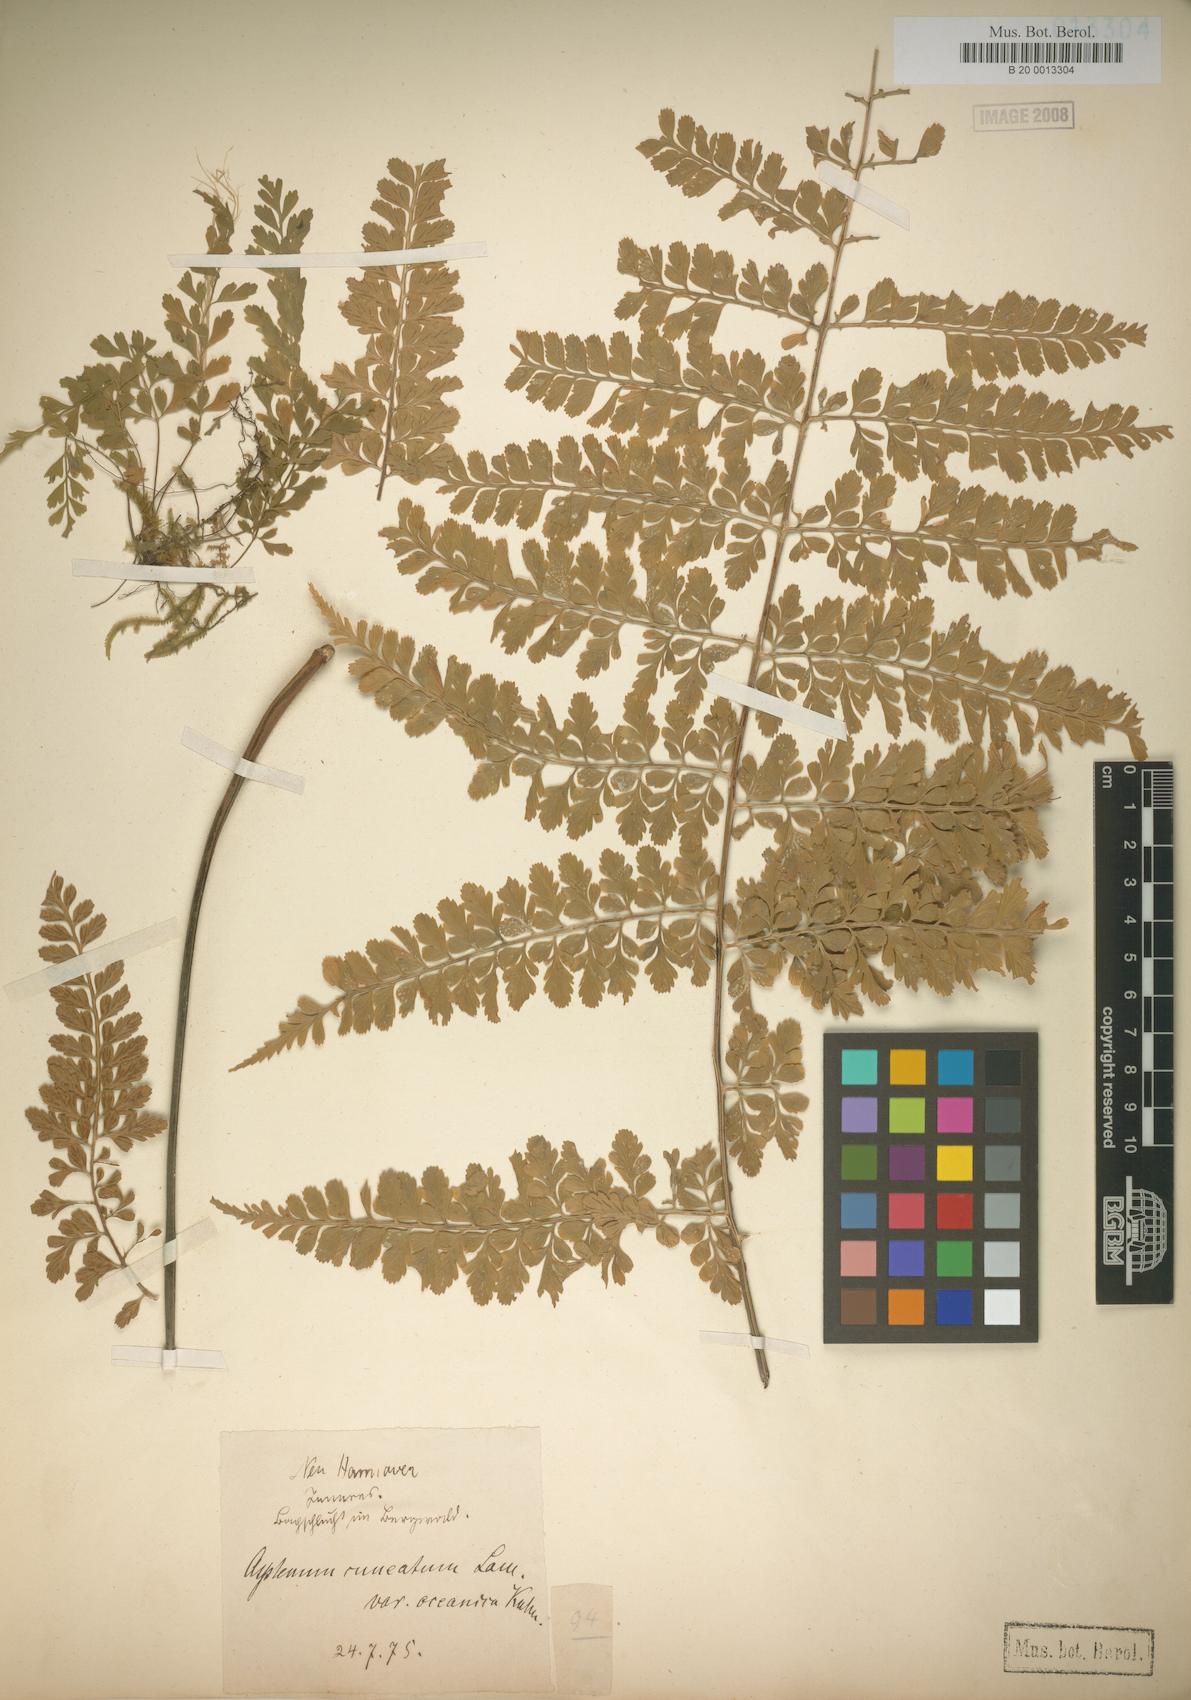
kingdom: Plantae
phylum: Tracheophyta
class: Polypodiopsida
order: Polypodiales
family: Aspleniaceae
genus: Asplenium
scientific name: Asplenium cuneatum
